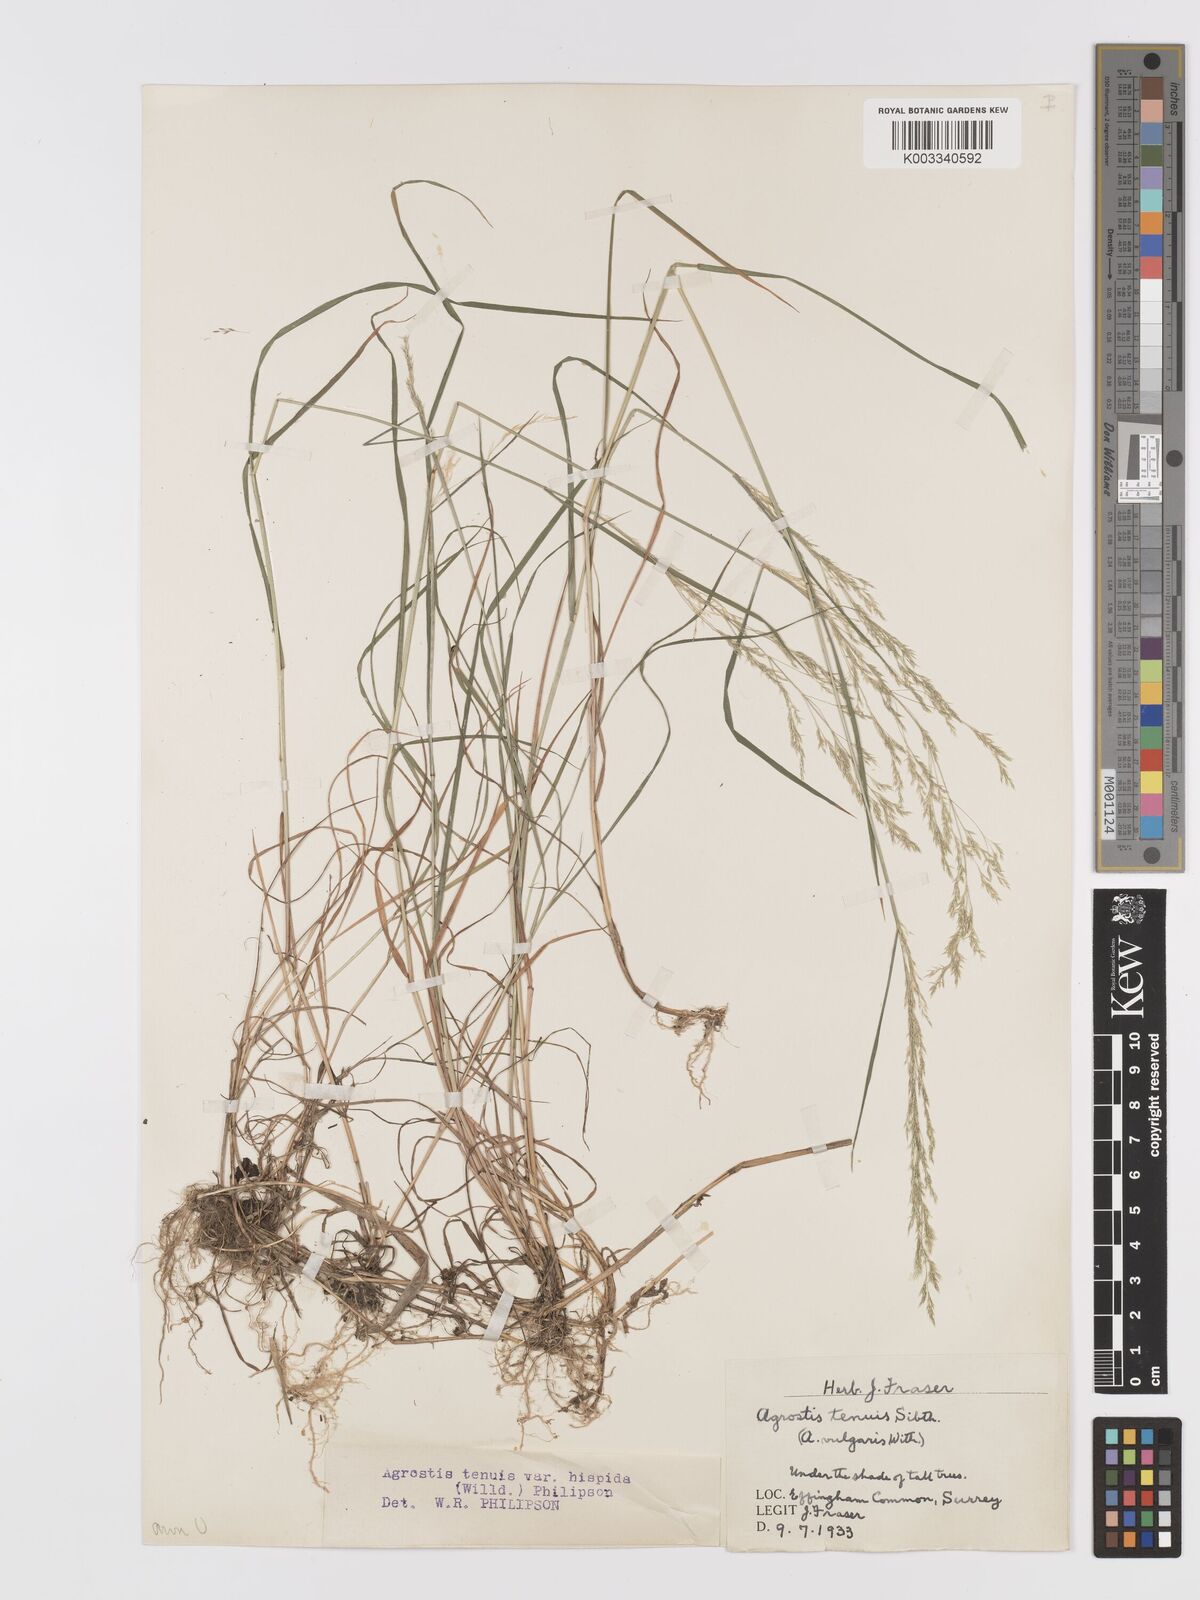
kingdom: Plantae
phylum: Tracheophyta
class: Liliopsida
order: Poales
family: Poaceae
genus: Agrostis
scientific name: Agrostis capillaris
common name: Colonial bentgrass
